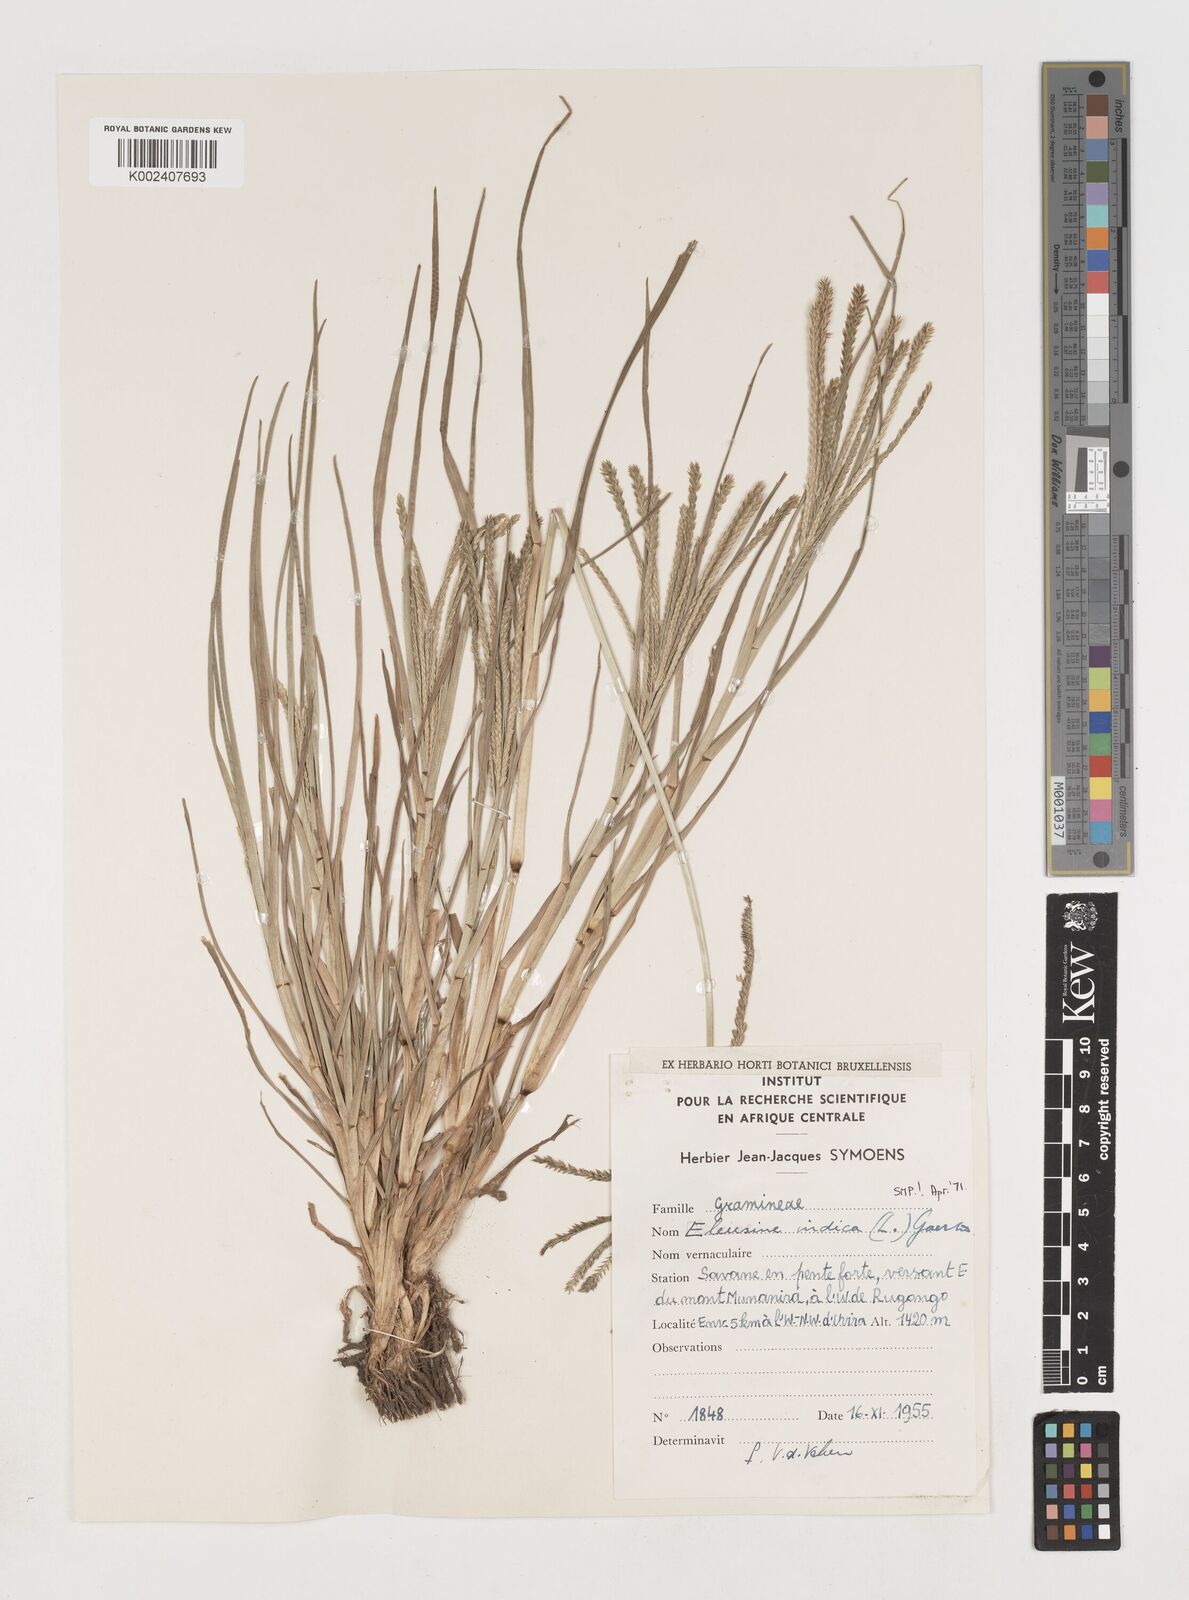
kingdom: Plantae
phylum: Tracheophyta
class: Liliopsida
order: Poales
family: Poaceae
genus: Eleusine
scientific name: Eleusine indica
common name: Yard-grass
